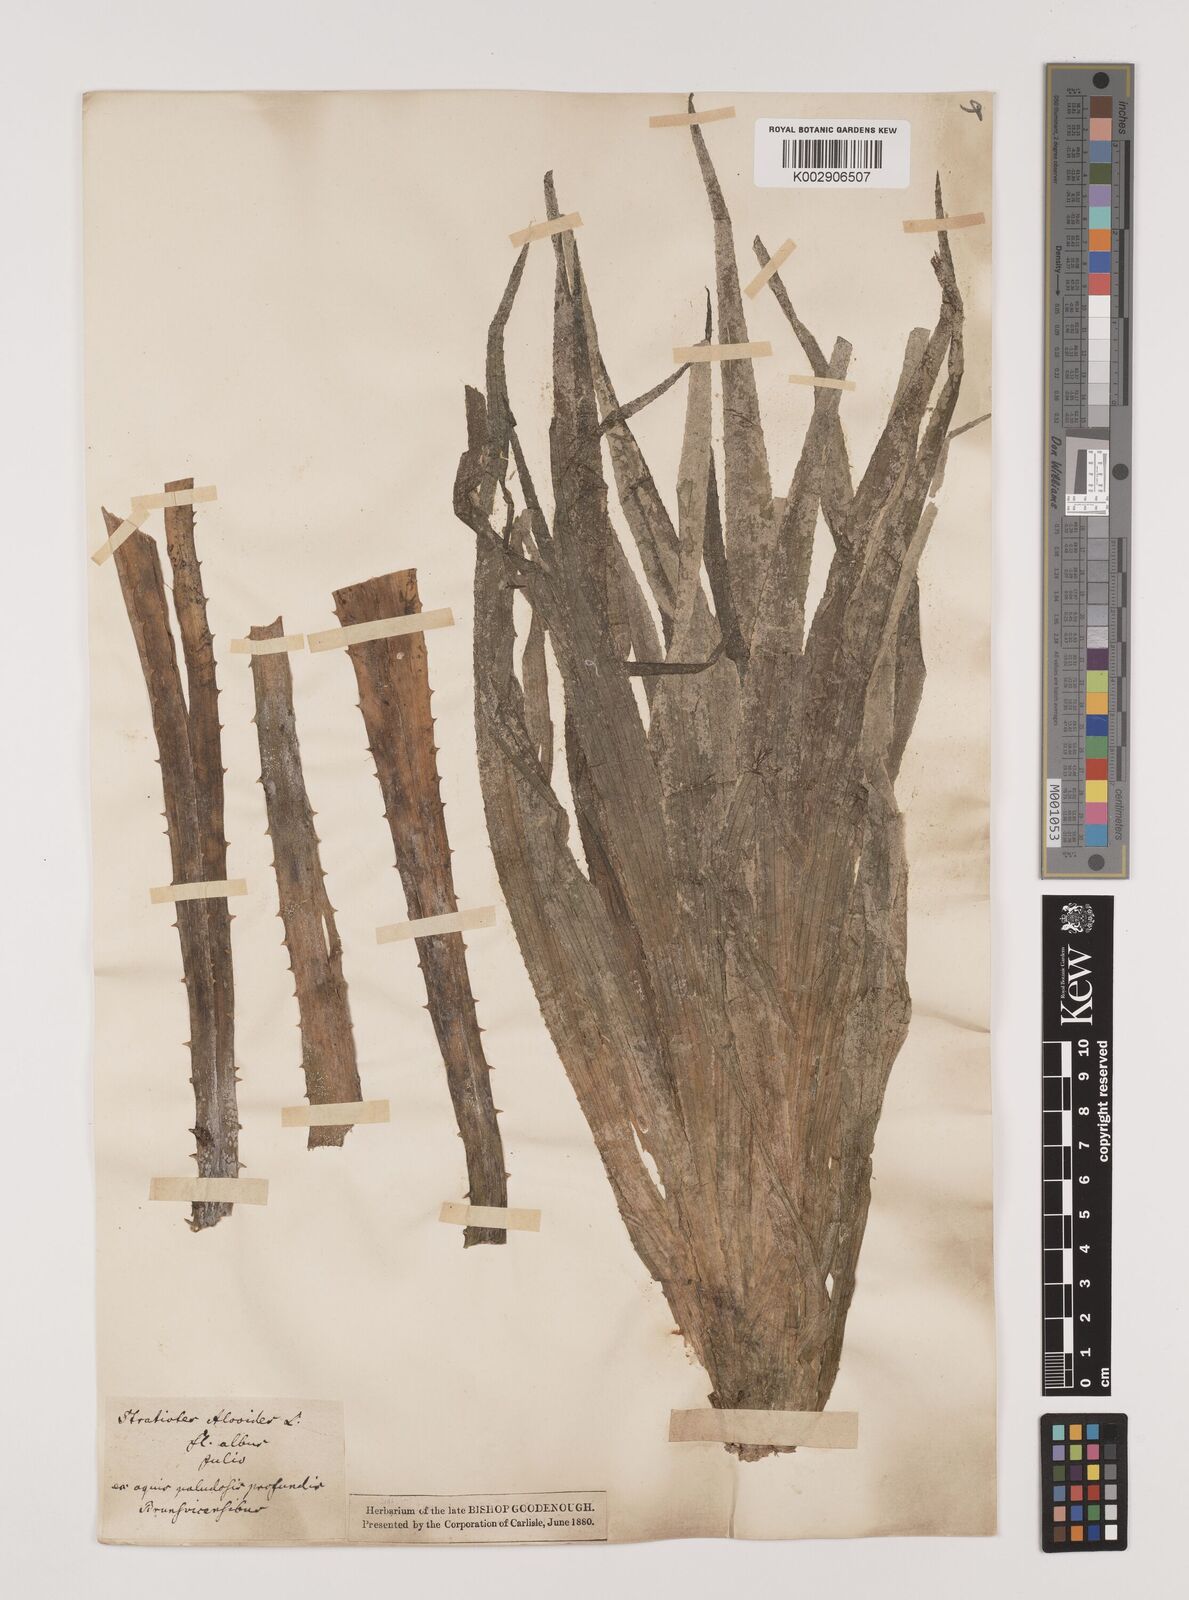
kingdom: Plantae
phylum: Tracheophyta
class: Liliopsida
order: Alismatales
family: Hydrocharitaceae
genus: Stratiotes
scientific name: Stratiotes aloides
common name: Water-soldier
